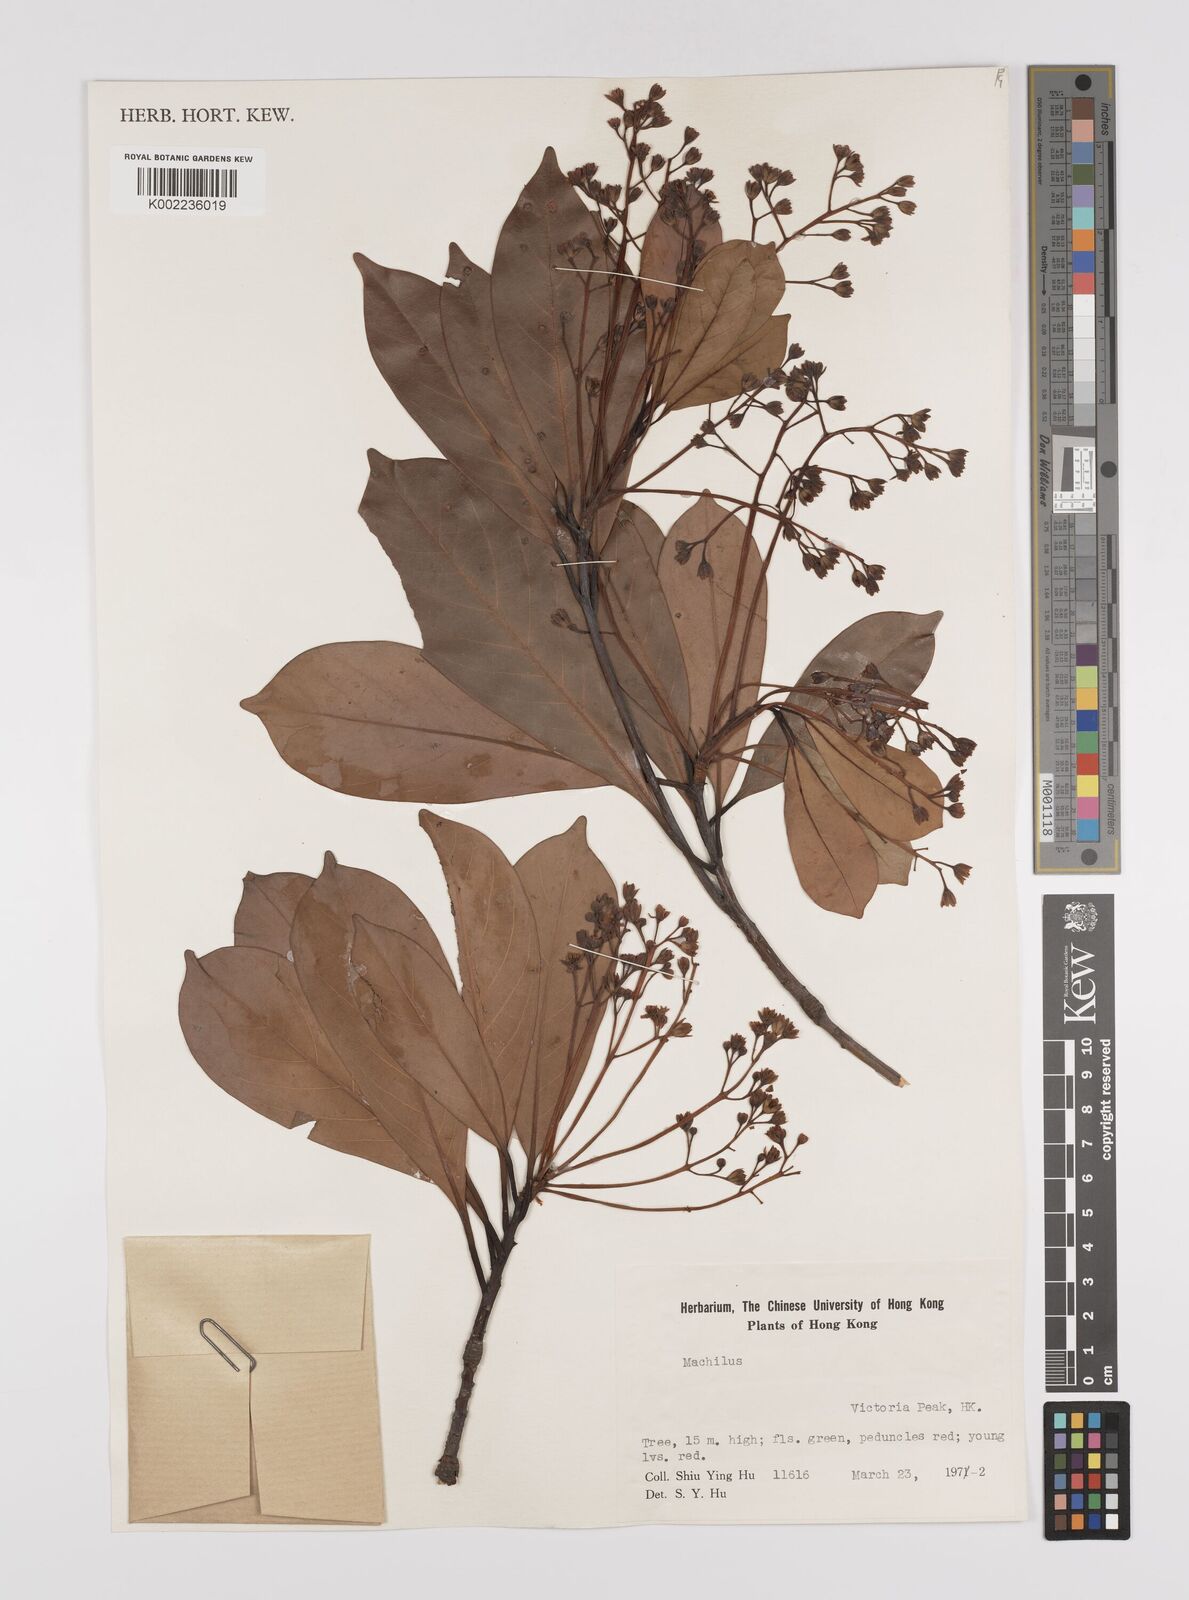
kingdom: Plantae
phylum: Tracheophyta
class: Magnoliopsida
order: Laurales
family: Lauraceae
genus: Persea
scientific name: Persea
